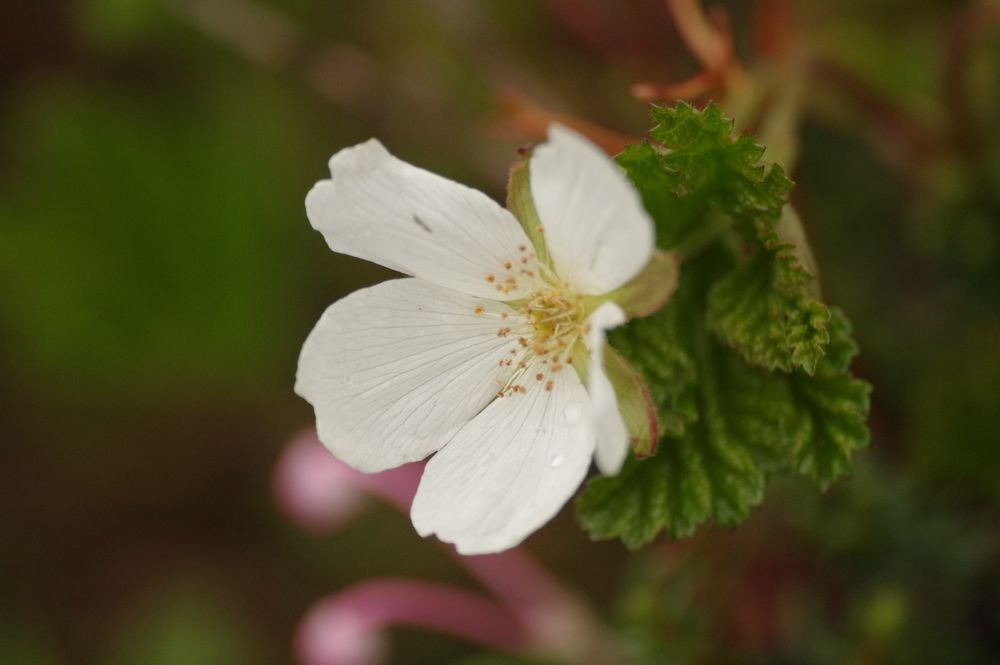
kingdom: Plantae
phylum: Tracheophyta
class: Magnoliopsida
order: Rosales
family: Rosaceae
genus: Rubus
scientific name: Rubus chamaemorus
